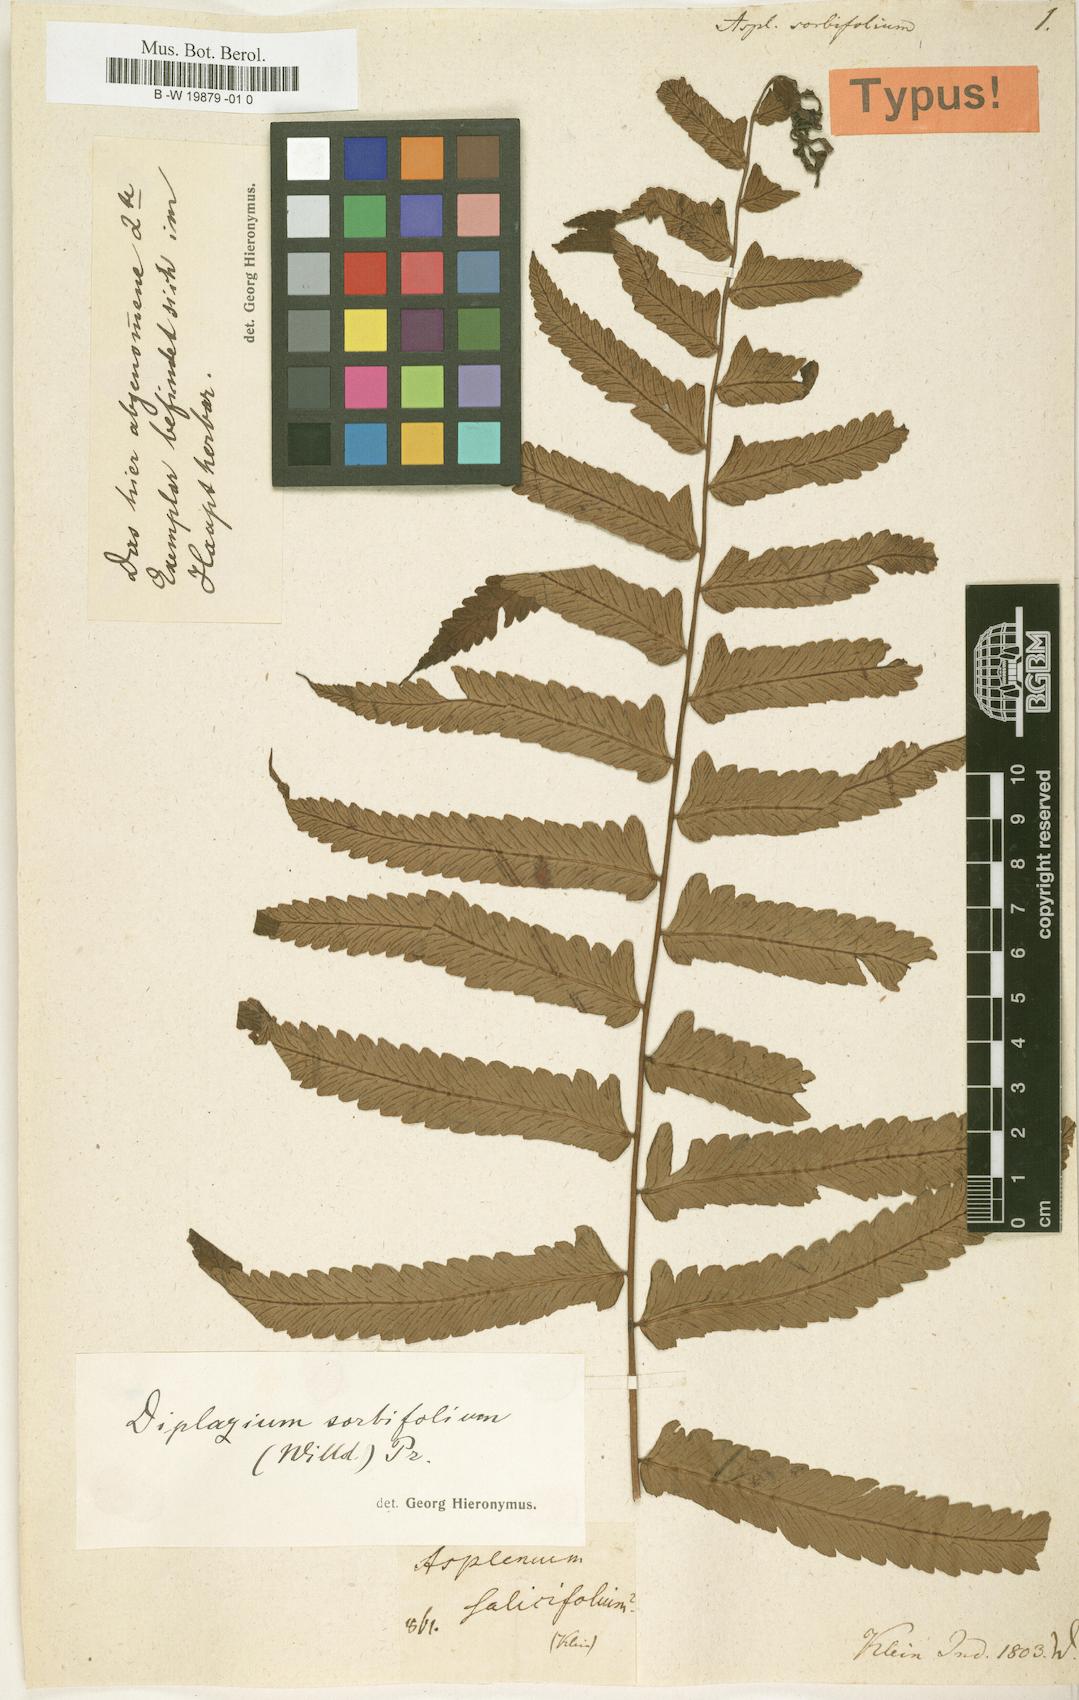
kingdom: Plantae
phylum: Tracheophyta
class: Polypodiopsida
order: Polypodiales
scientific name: Polypodiales
